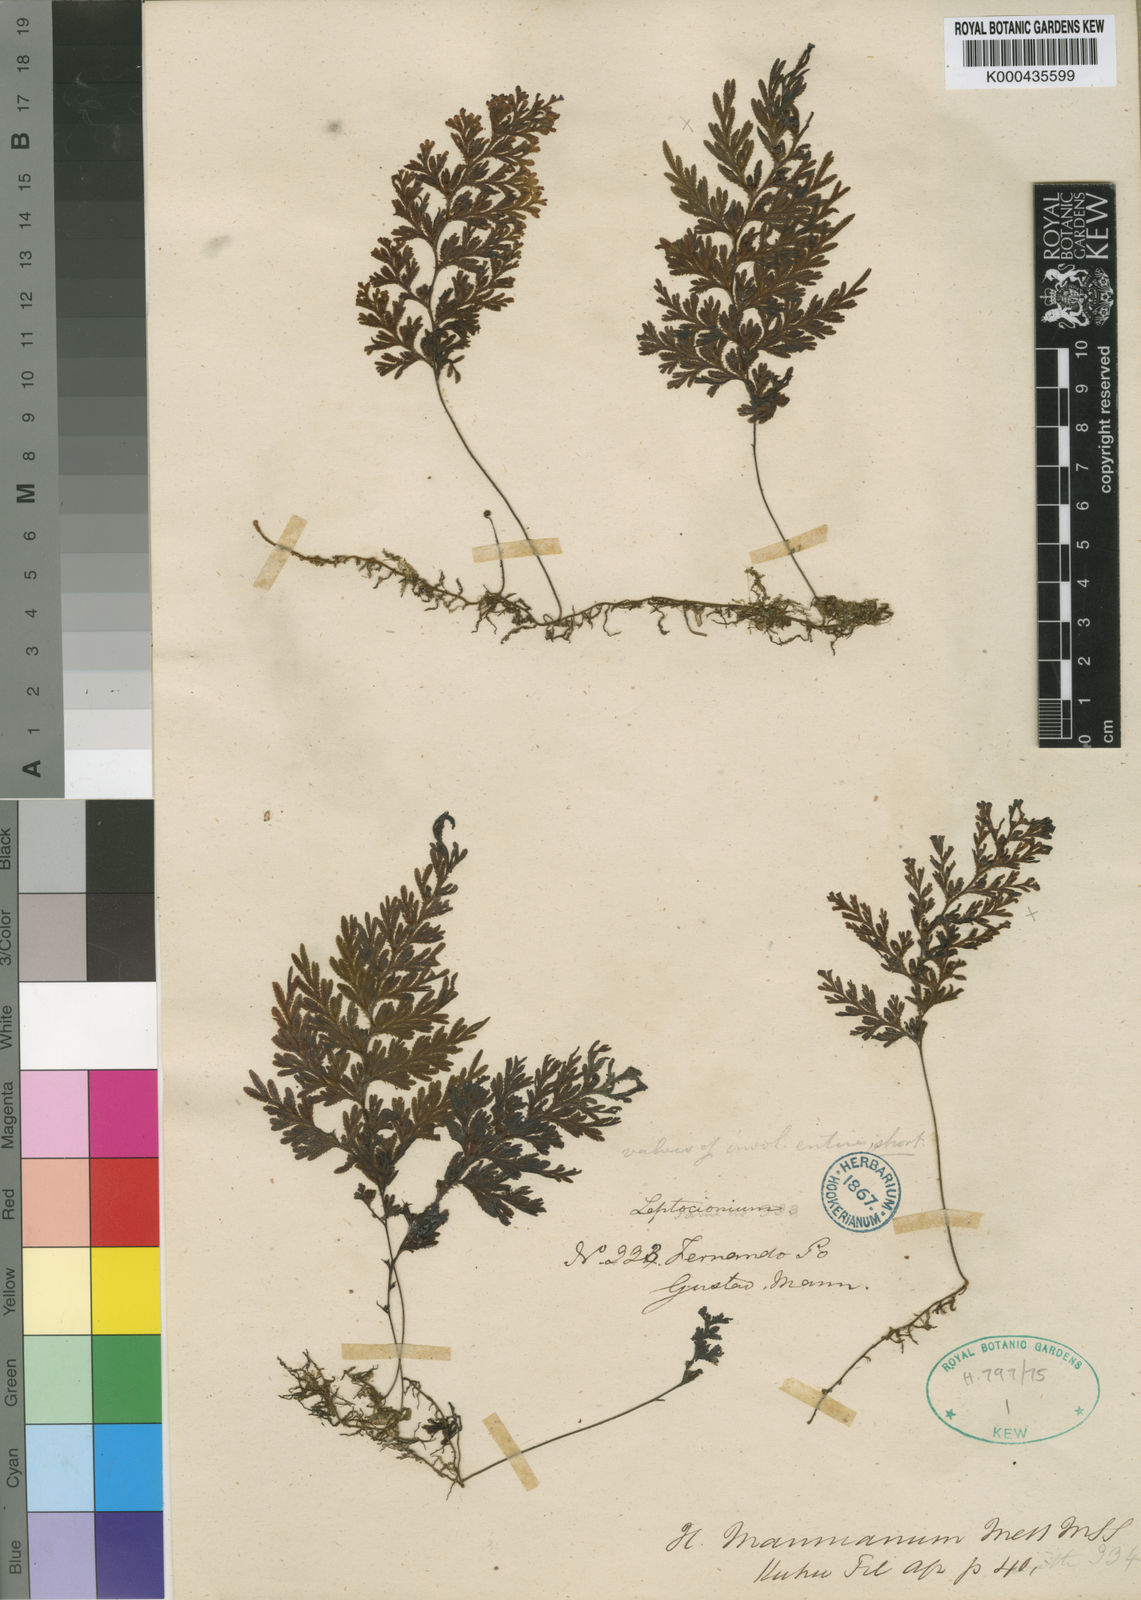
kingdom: Plantae
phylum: Tracheophyta
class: Polypodiopsida
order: Hymenophyllales
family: Hymenophyllaceae
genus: Hymenophyllum
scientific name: Hymenophyllum triangulare
